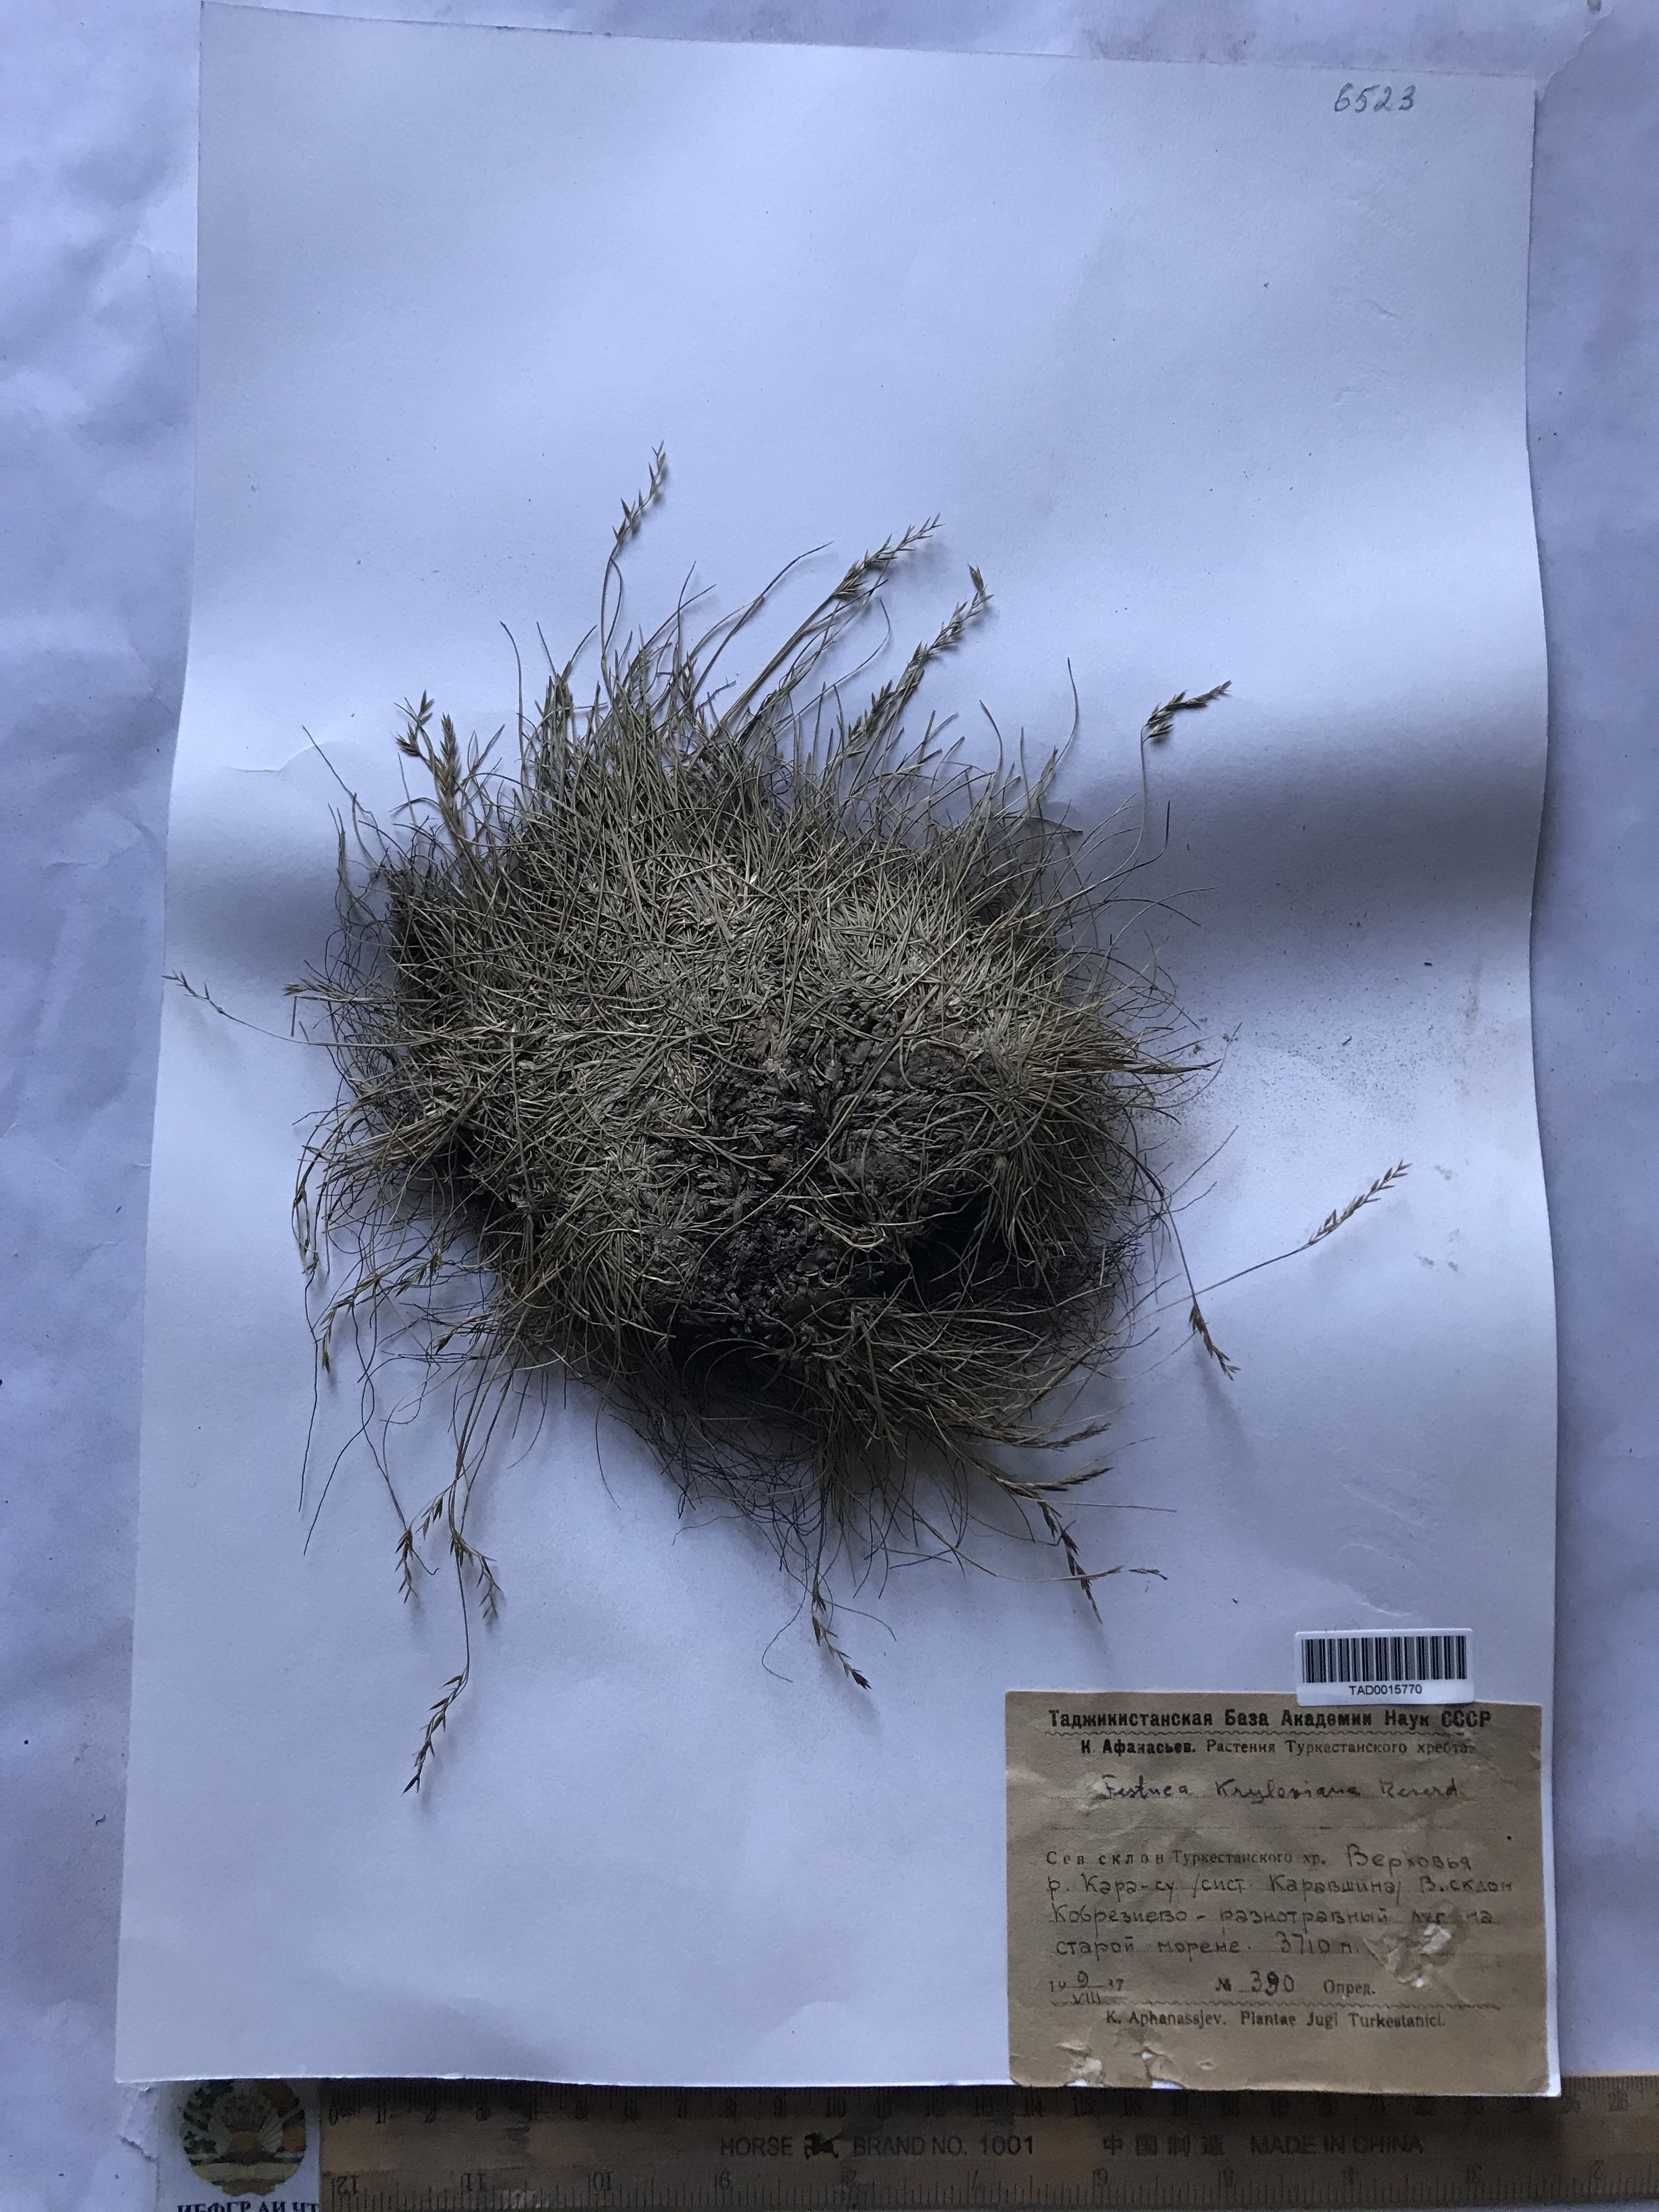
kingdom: Plantae
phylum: Tracheophyta
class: Liliopsida
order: Poales
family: Poaceae
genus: Festuca
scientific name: Festuca kryloviana
